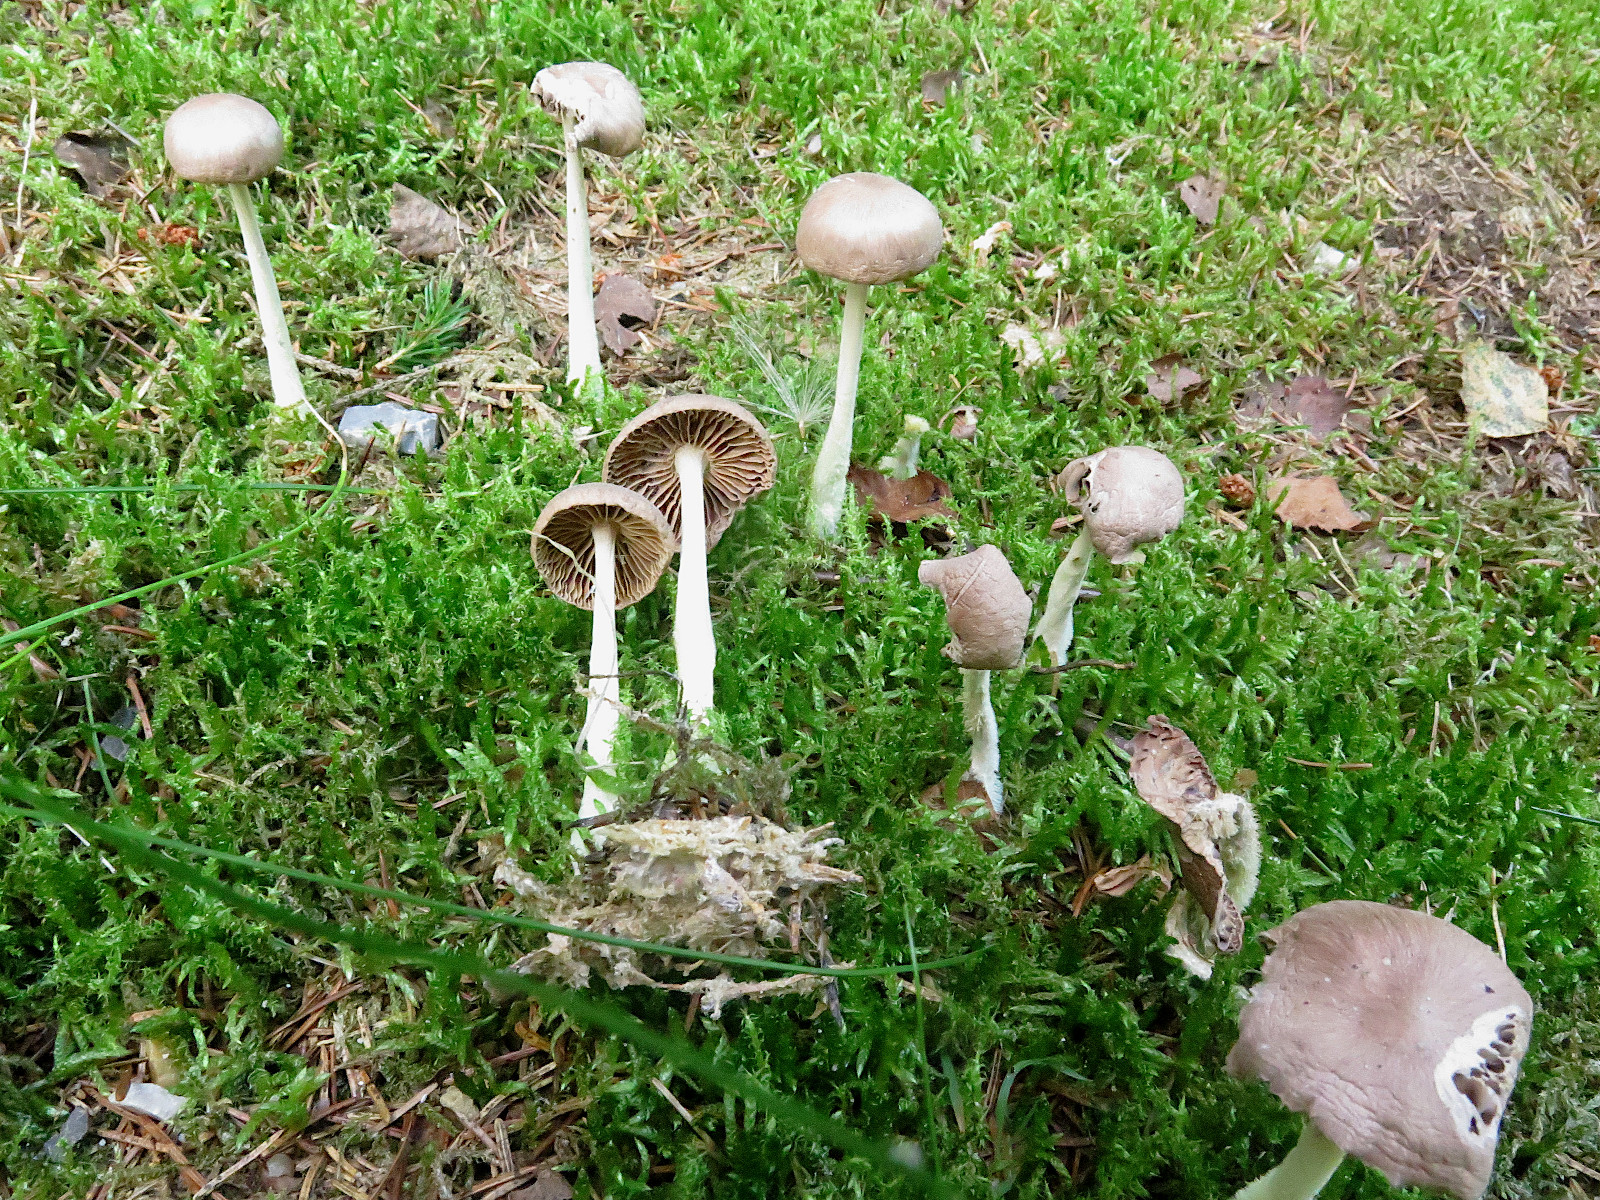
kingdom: Fungi
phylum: Basidiomycota
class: Agaricomycetes
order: Agaricales
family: Omphalotaceae
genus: Collybiopsis
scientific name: Collybiopsis peronata
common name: bestøvlet fladhat
